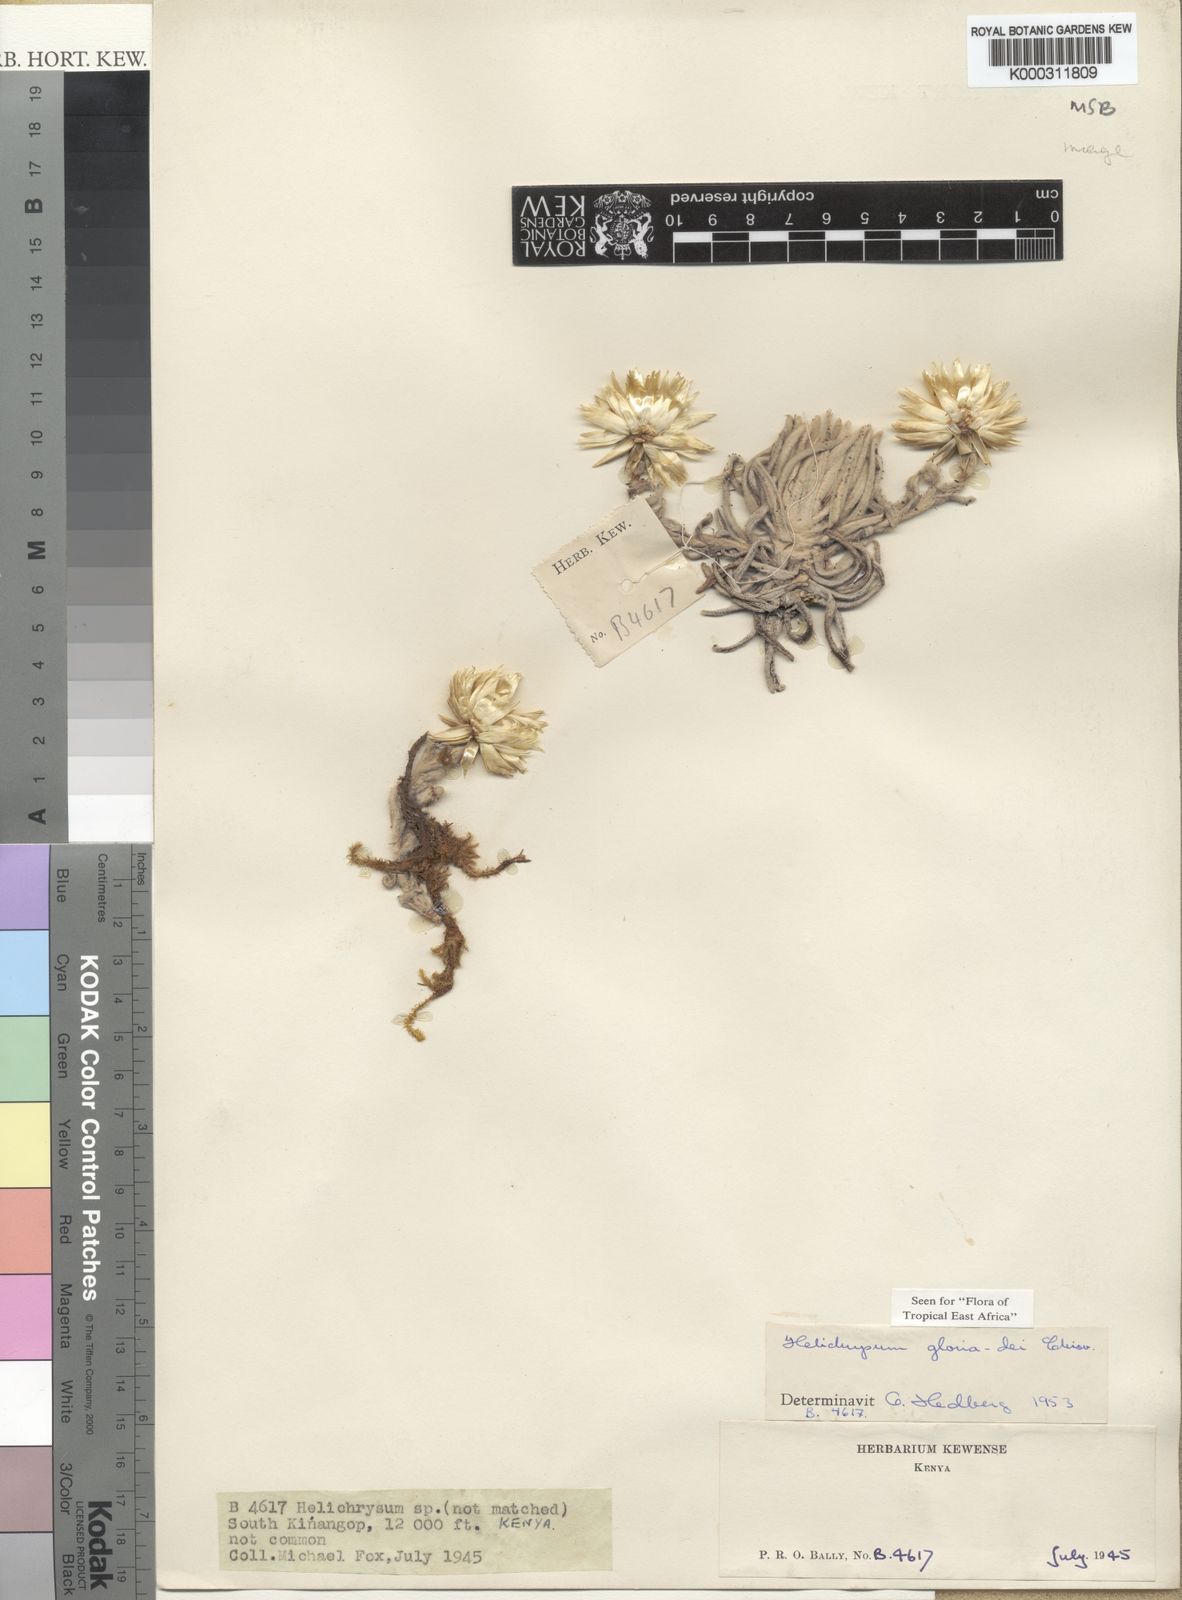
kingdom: Plantae
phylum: Tracheophyta
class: Magnoliopsida
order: Asterales
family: Asteraceae
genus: Helichrysum
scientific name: Helichrysum gloria-dei
